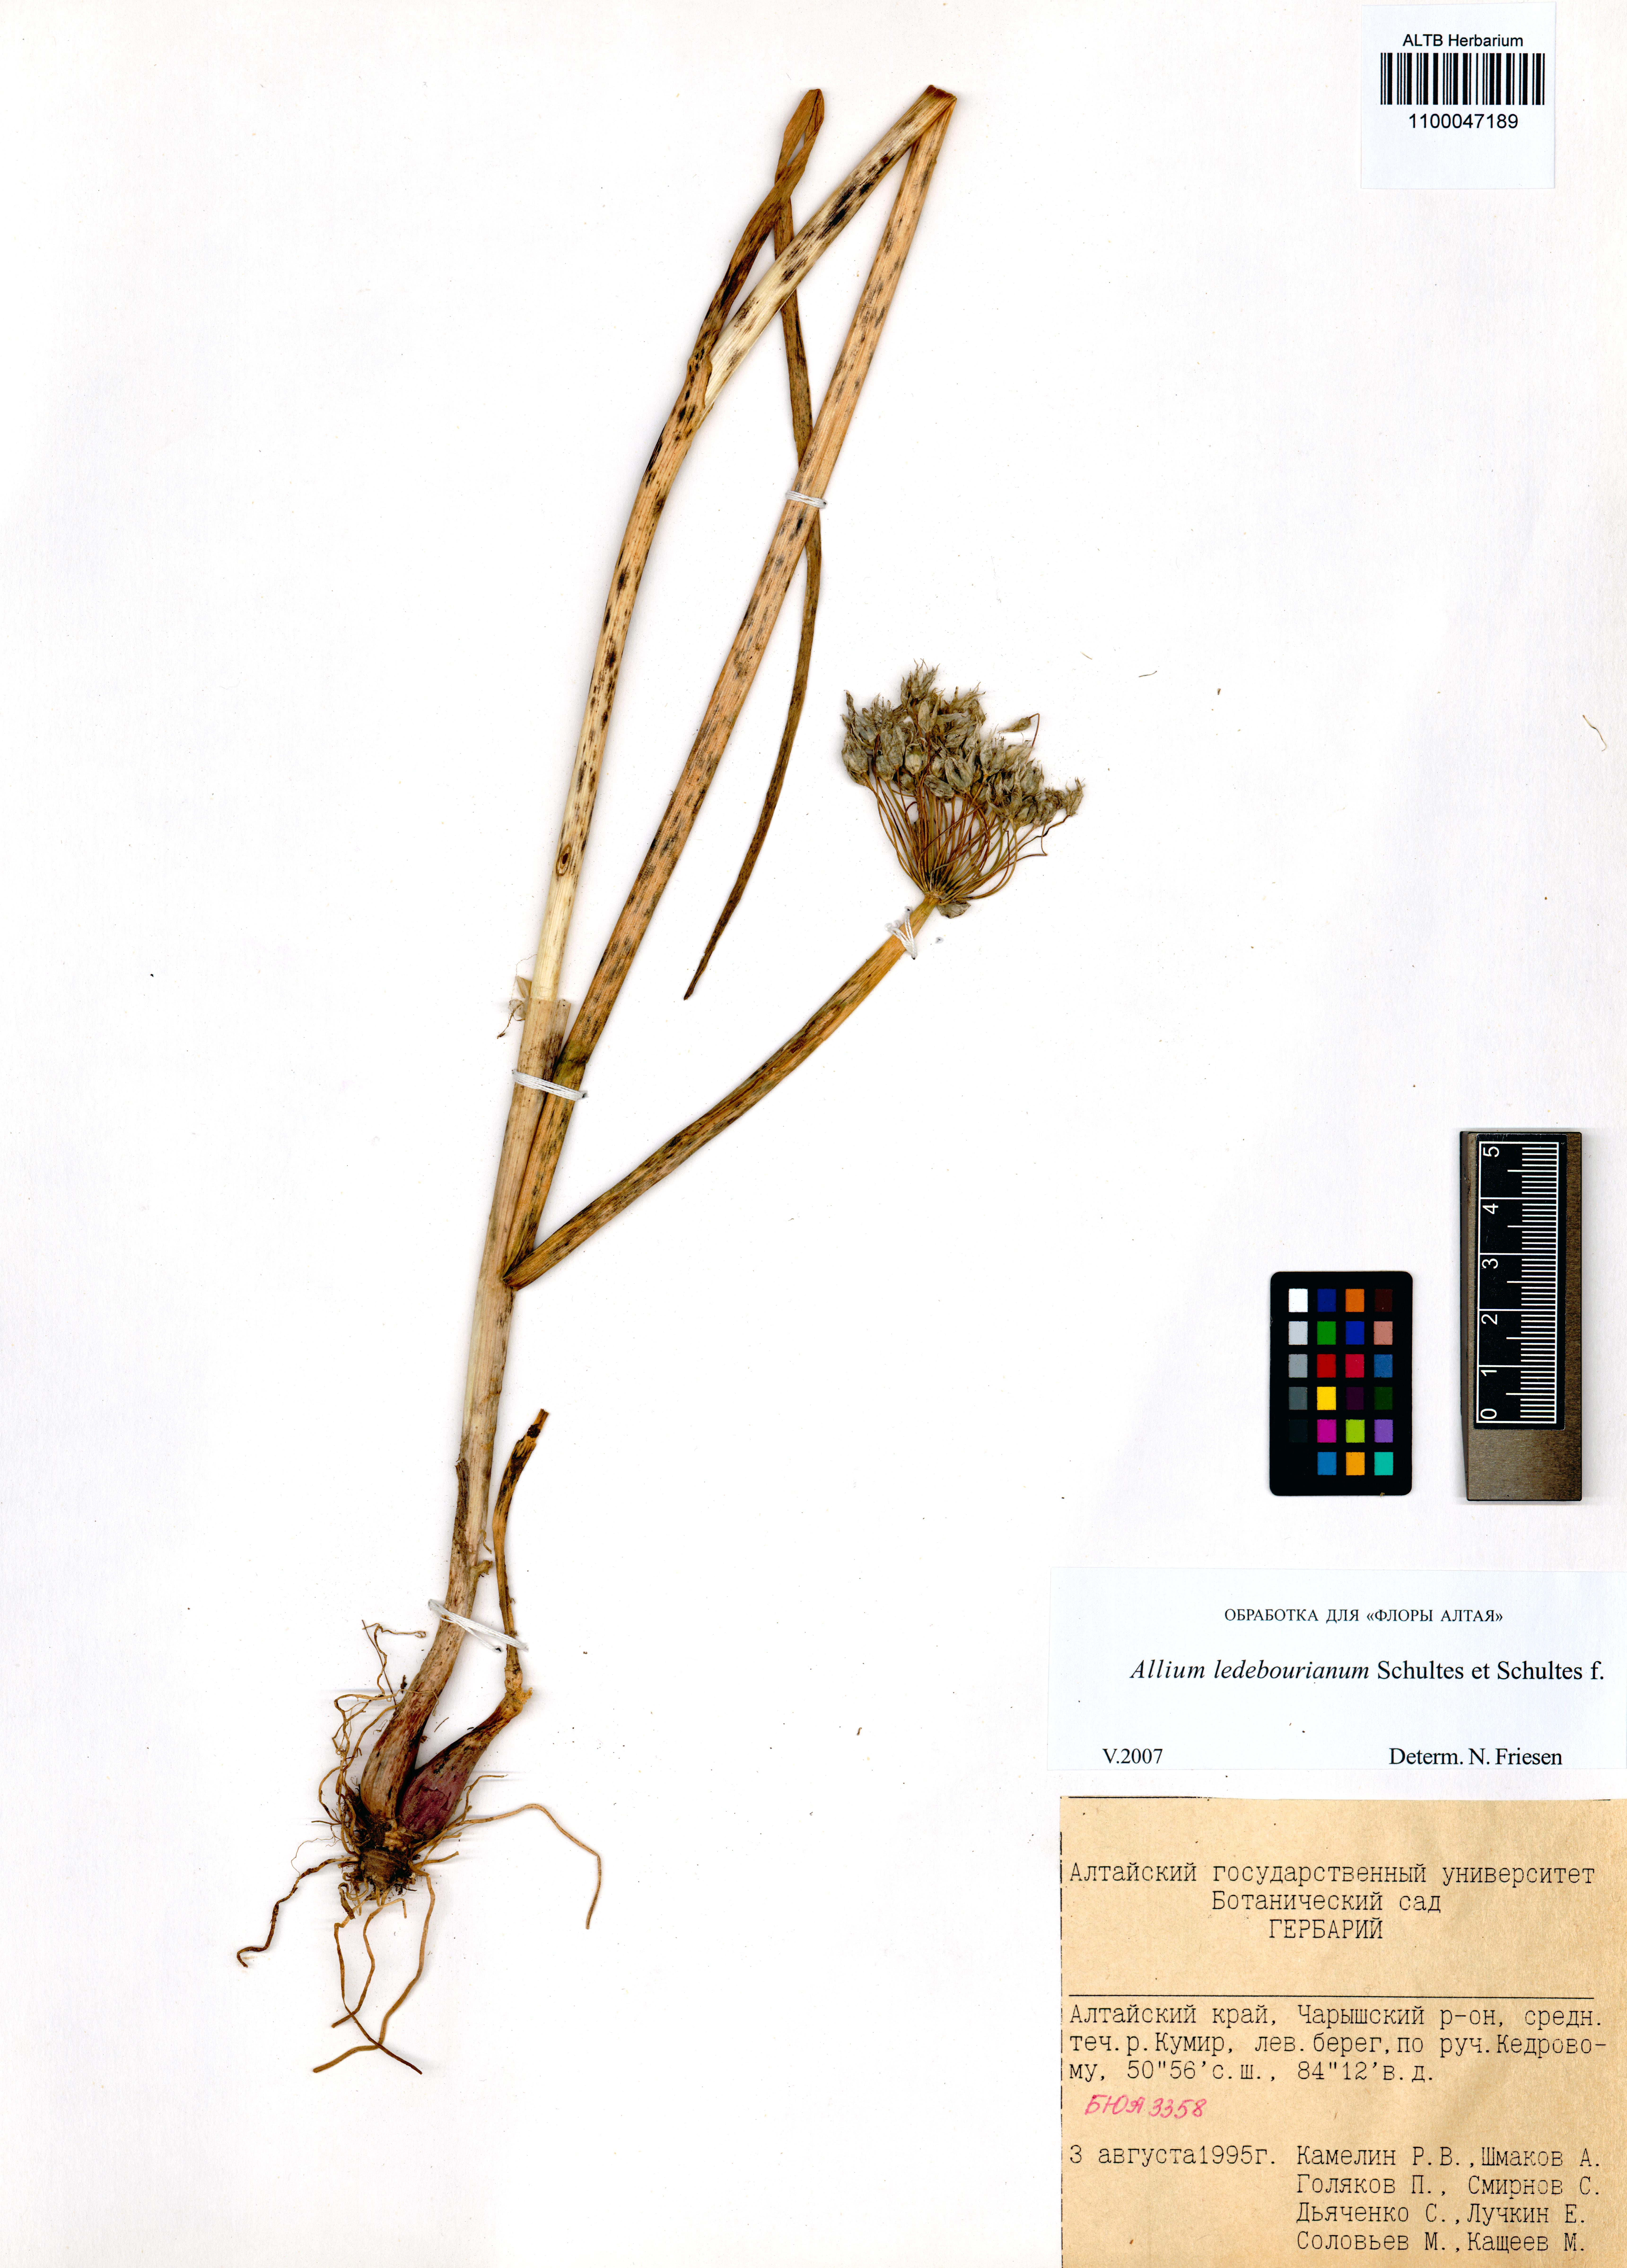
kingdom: Plantae
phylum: Tracheophyta
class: Liliopsida
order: Asparagales
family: Amaryllidaceae
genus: Allium
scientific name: Allium ledebourianum
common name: Ledebour chive
